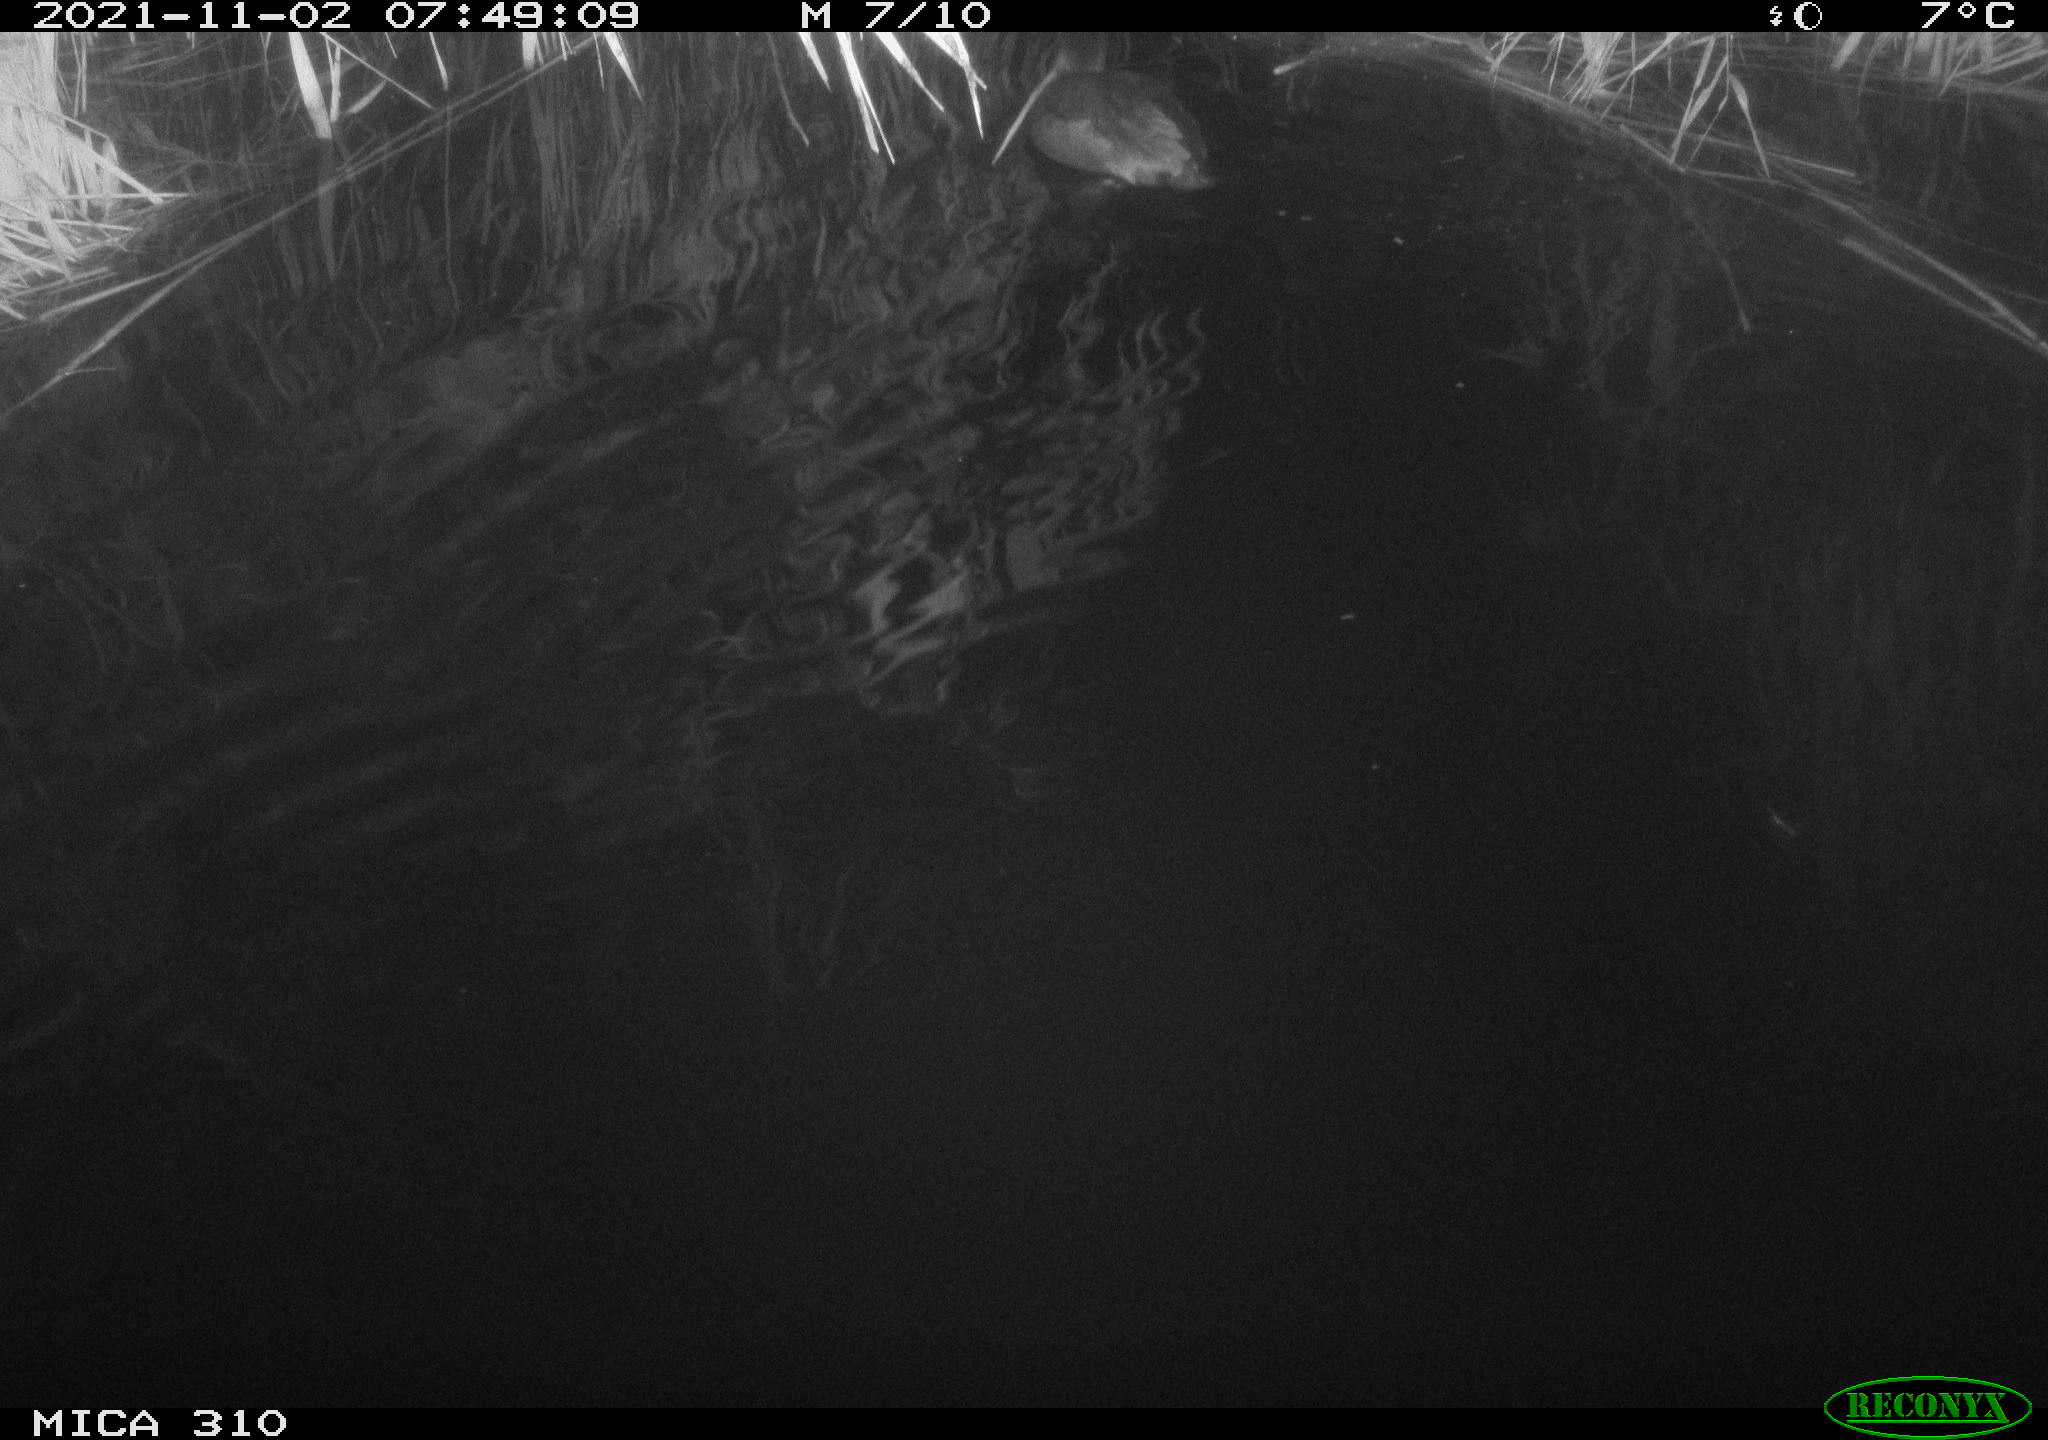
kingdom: Animalia
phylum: Chordata
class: Aves
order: Gruiformes
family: Rallidae
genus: Fulica
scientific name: Fulica atra
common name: Eurasian coot
